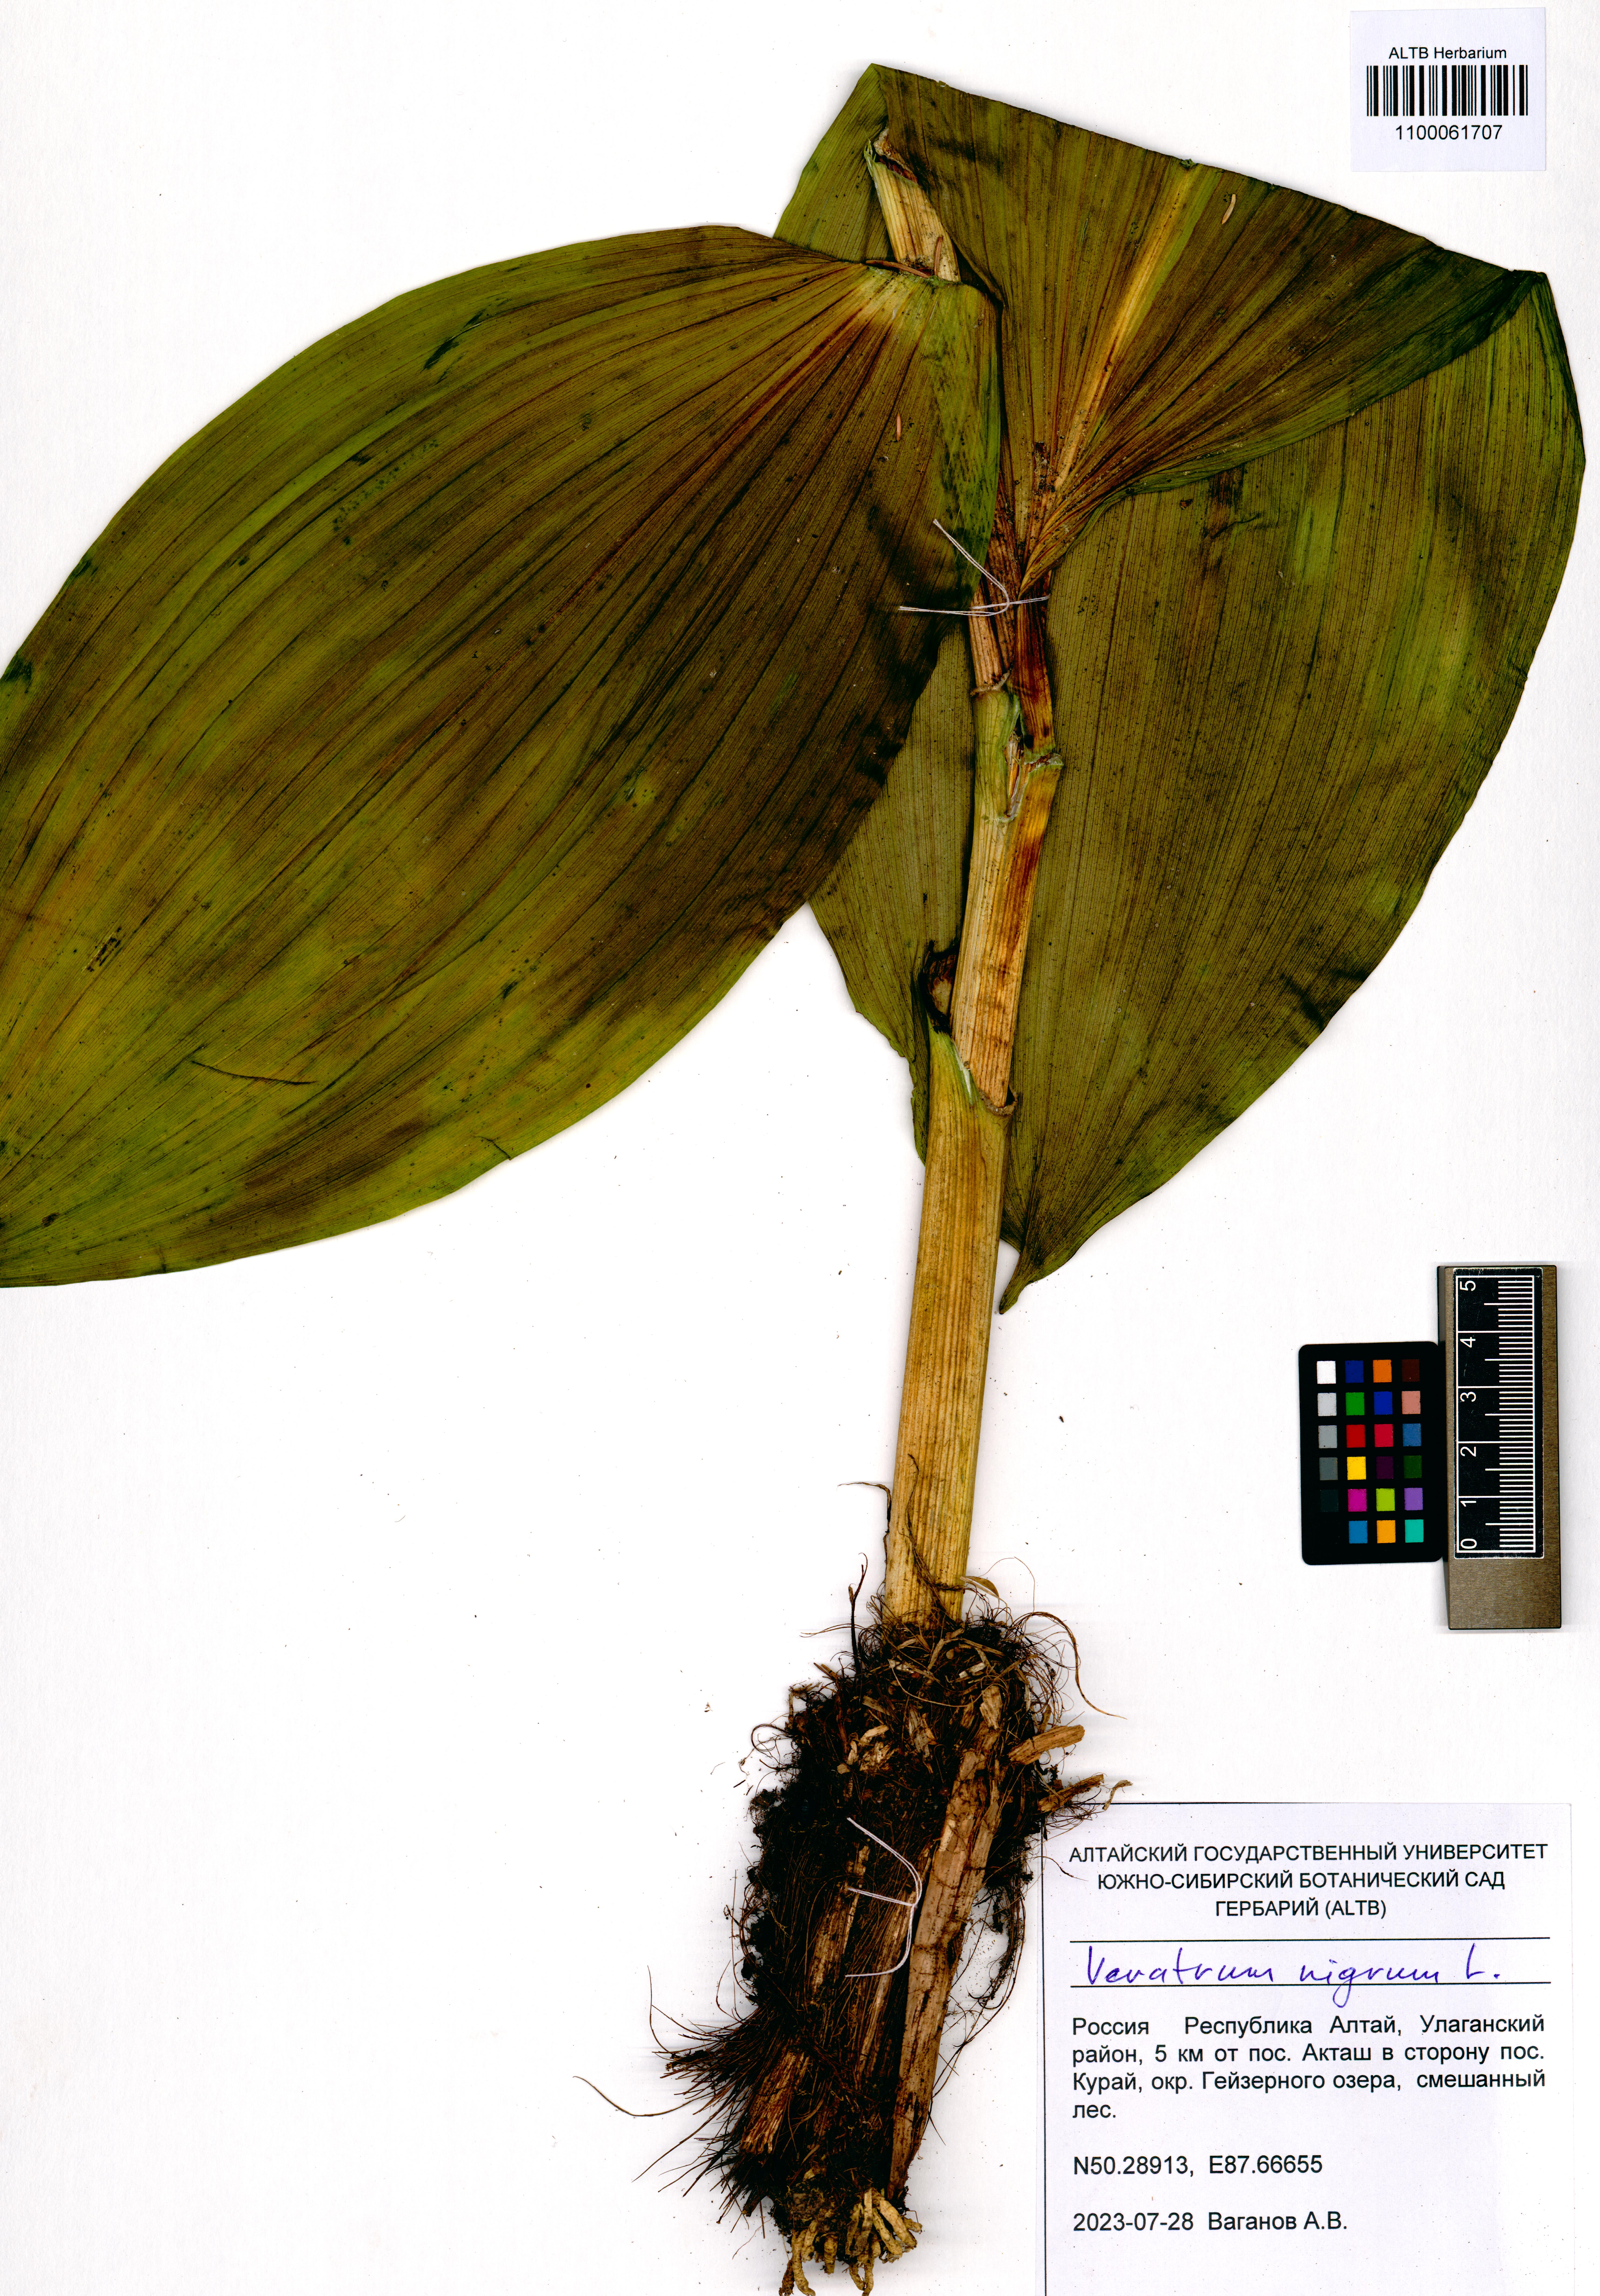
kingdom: Plantae
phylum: Tracheophyta
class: Liliopsida
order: Liliales
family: Melanthiaceae
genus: Veratrum
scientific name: Veratrum nigrum
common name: Black veratrum
